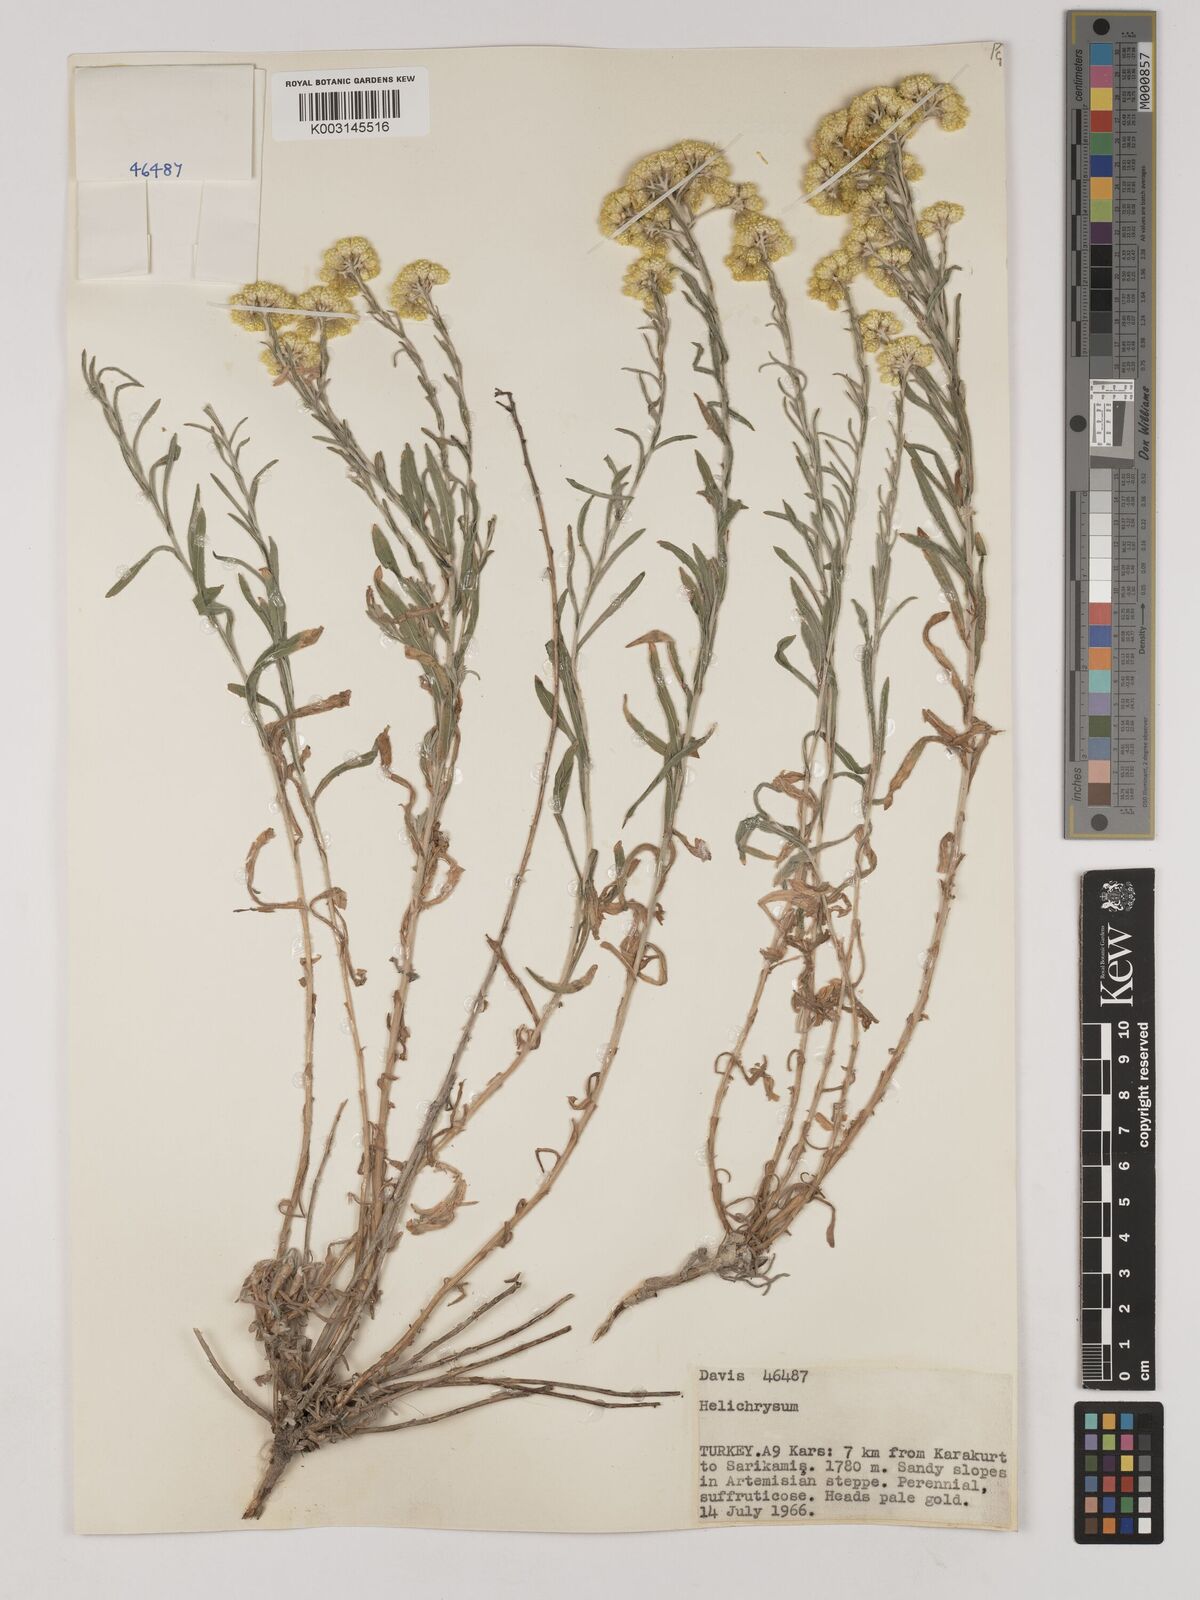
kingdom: Plantae
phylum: Tracheophyta
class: Magnoliopsida
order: Asterales
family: Asteraceae
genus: Helichrysum
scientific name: Helichrysum araxinum
